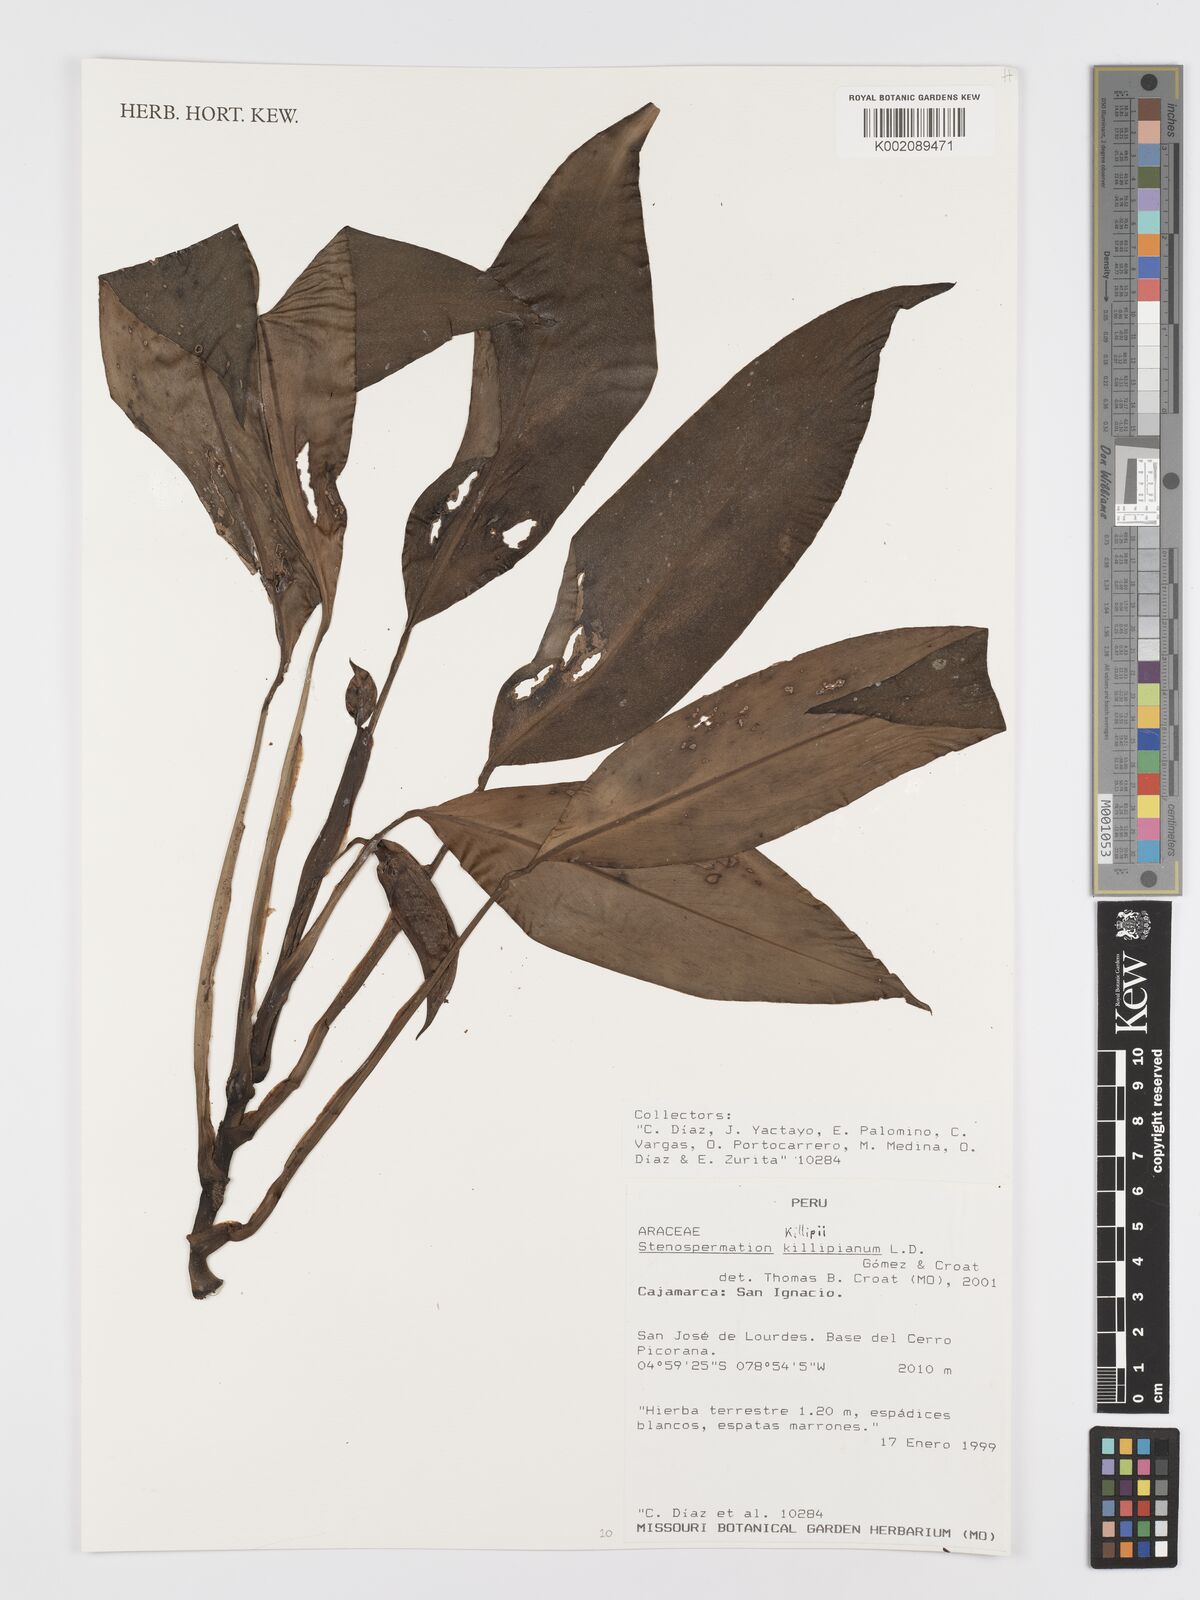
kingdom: Plantae
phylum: Tracheophyta
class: Liliopsida
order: Alismatales
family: Araceae
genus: Stenospermation
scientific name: Stenospermation zeacarpium
